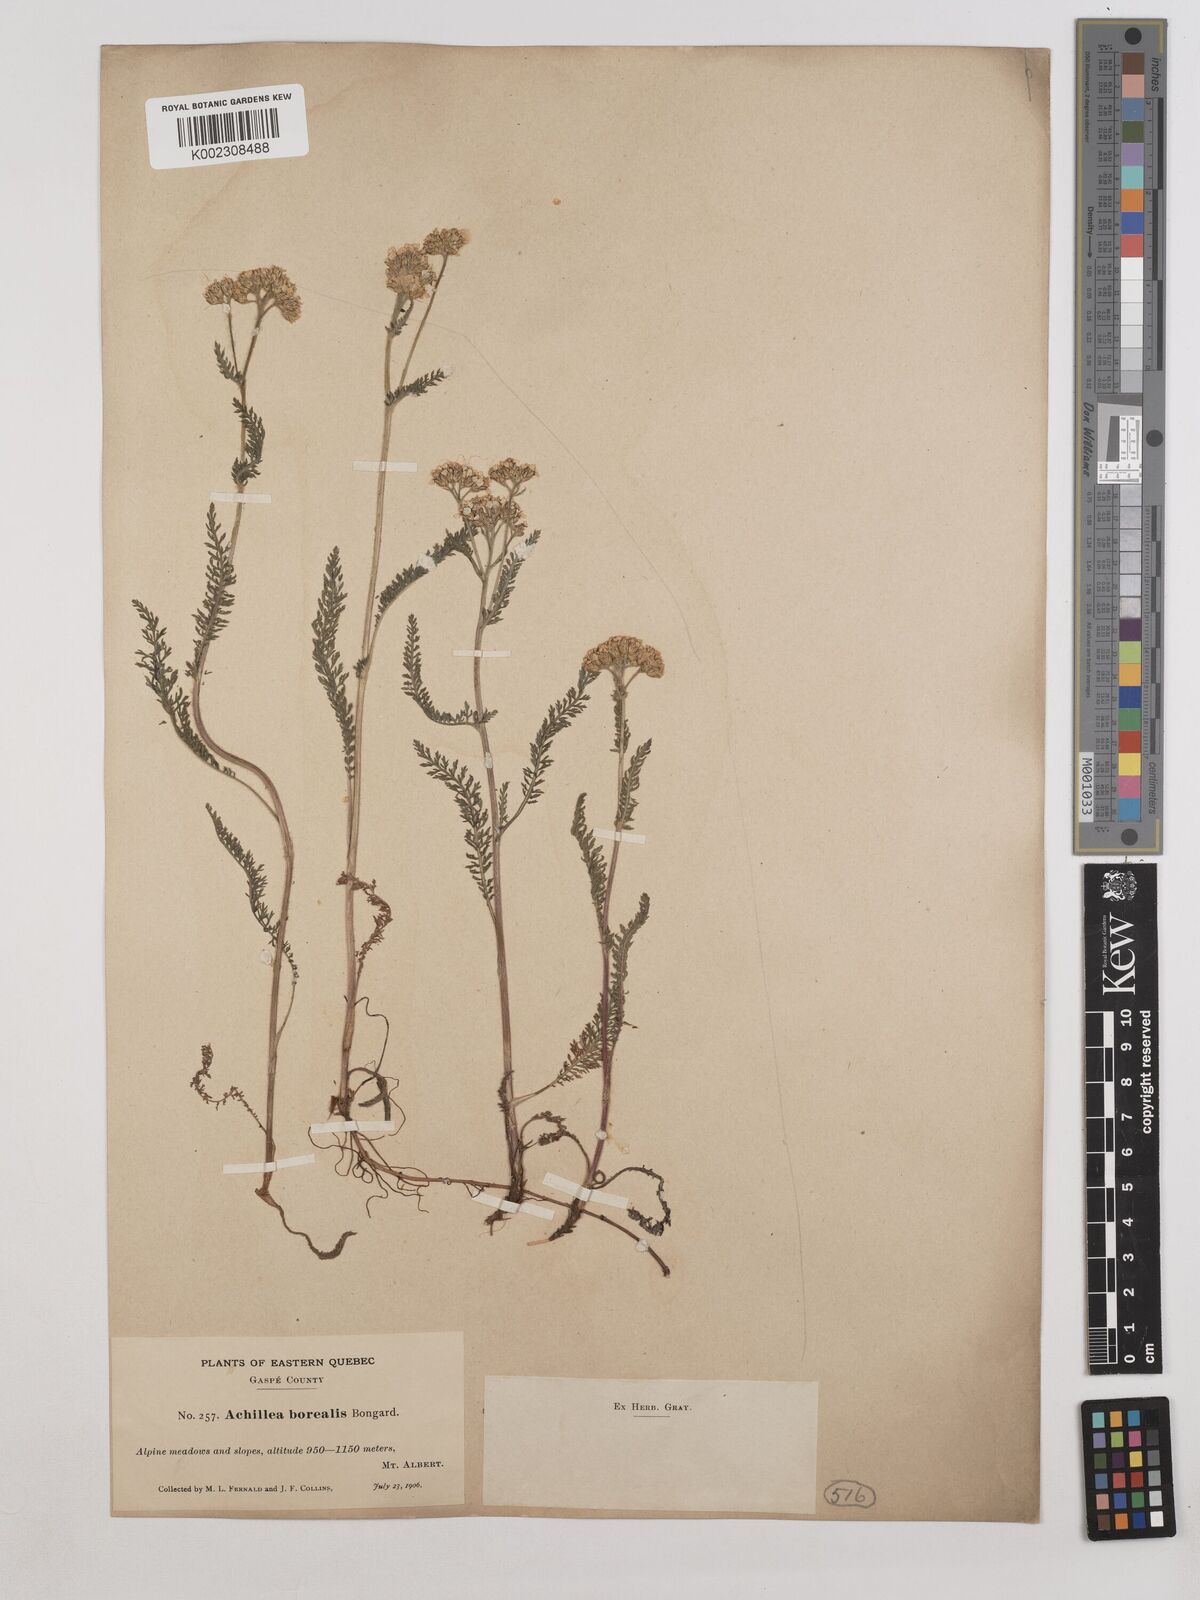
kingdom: Plantae
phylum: Tracheophyta
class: Magnoliopsida
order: Asterales
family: Asteraceae
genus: Achillea
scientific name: Achillea millefolium
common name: Yarrow
